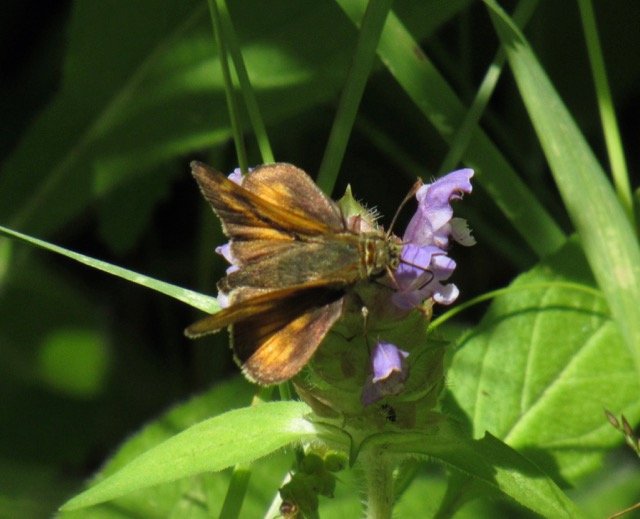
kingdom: Animalia
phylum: Arthropoda
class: Insecta
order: Lepidoptera
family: Hesperiidae
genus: Polites
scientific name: Polites
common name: Long Dash Skipper
